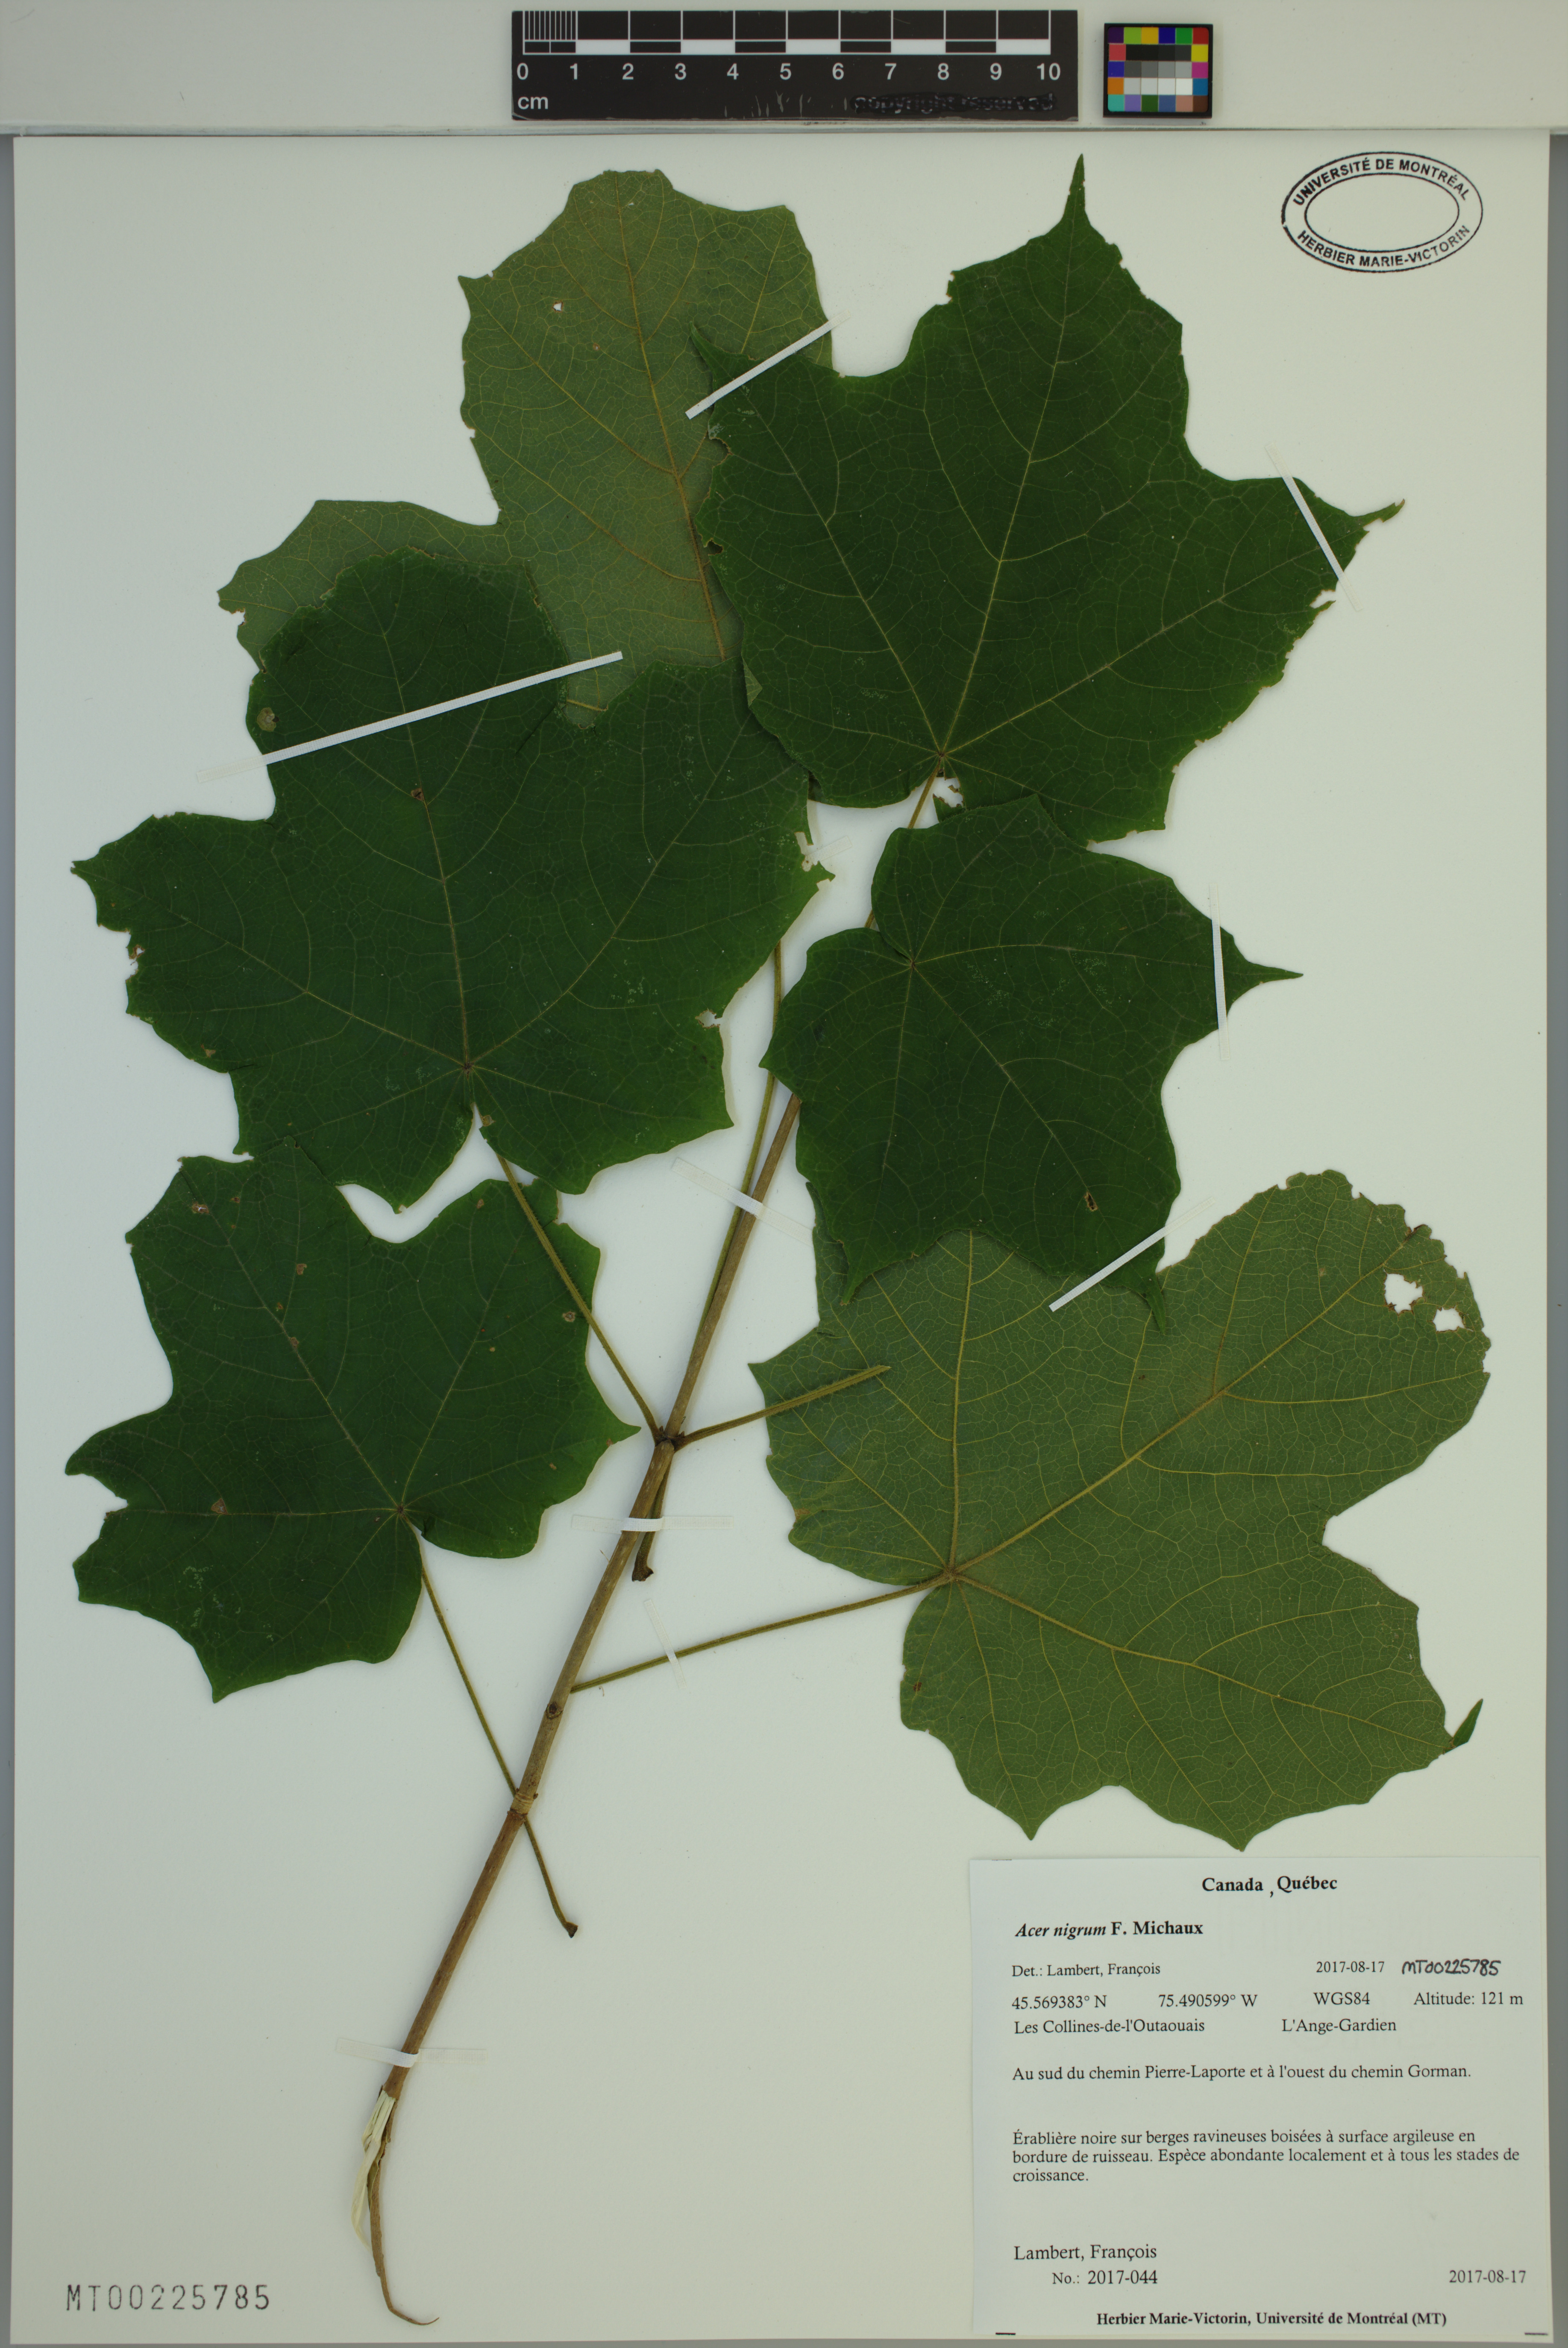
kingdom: Plantae
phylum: Tracheophyta
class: Magnoliopsida
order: Sapindales
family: Sapindaceae
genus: Acer
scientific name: Acer nigrum
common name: Black maple
